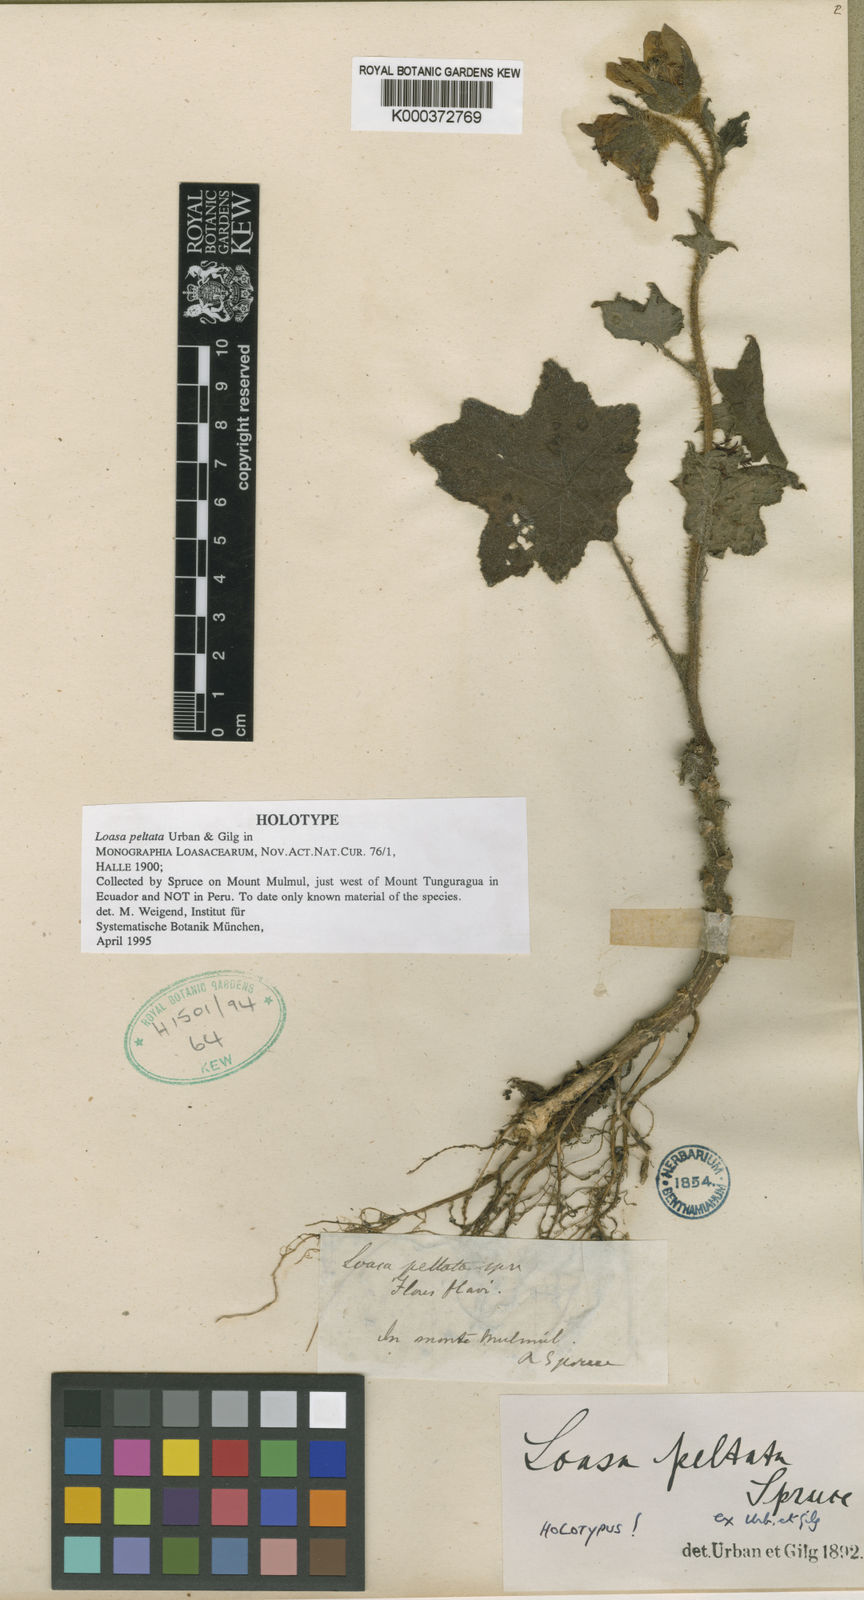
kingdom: Plantae
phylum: Tracheophyta
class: Magnoliopsida
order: Cornales
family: Loasaceae
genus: Nasa
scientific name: Nasa peltata
